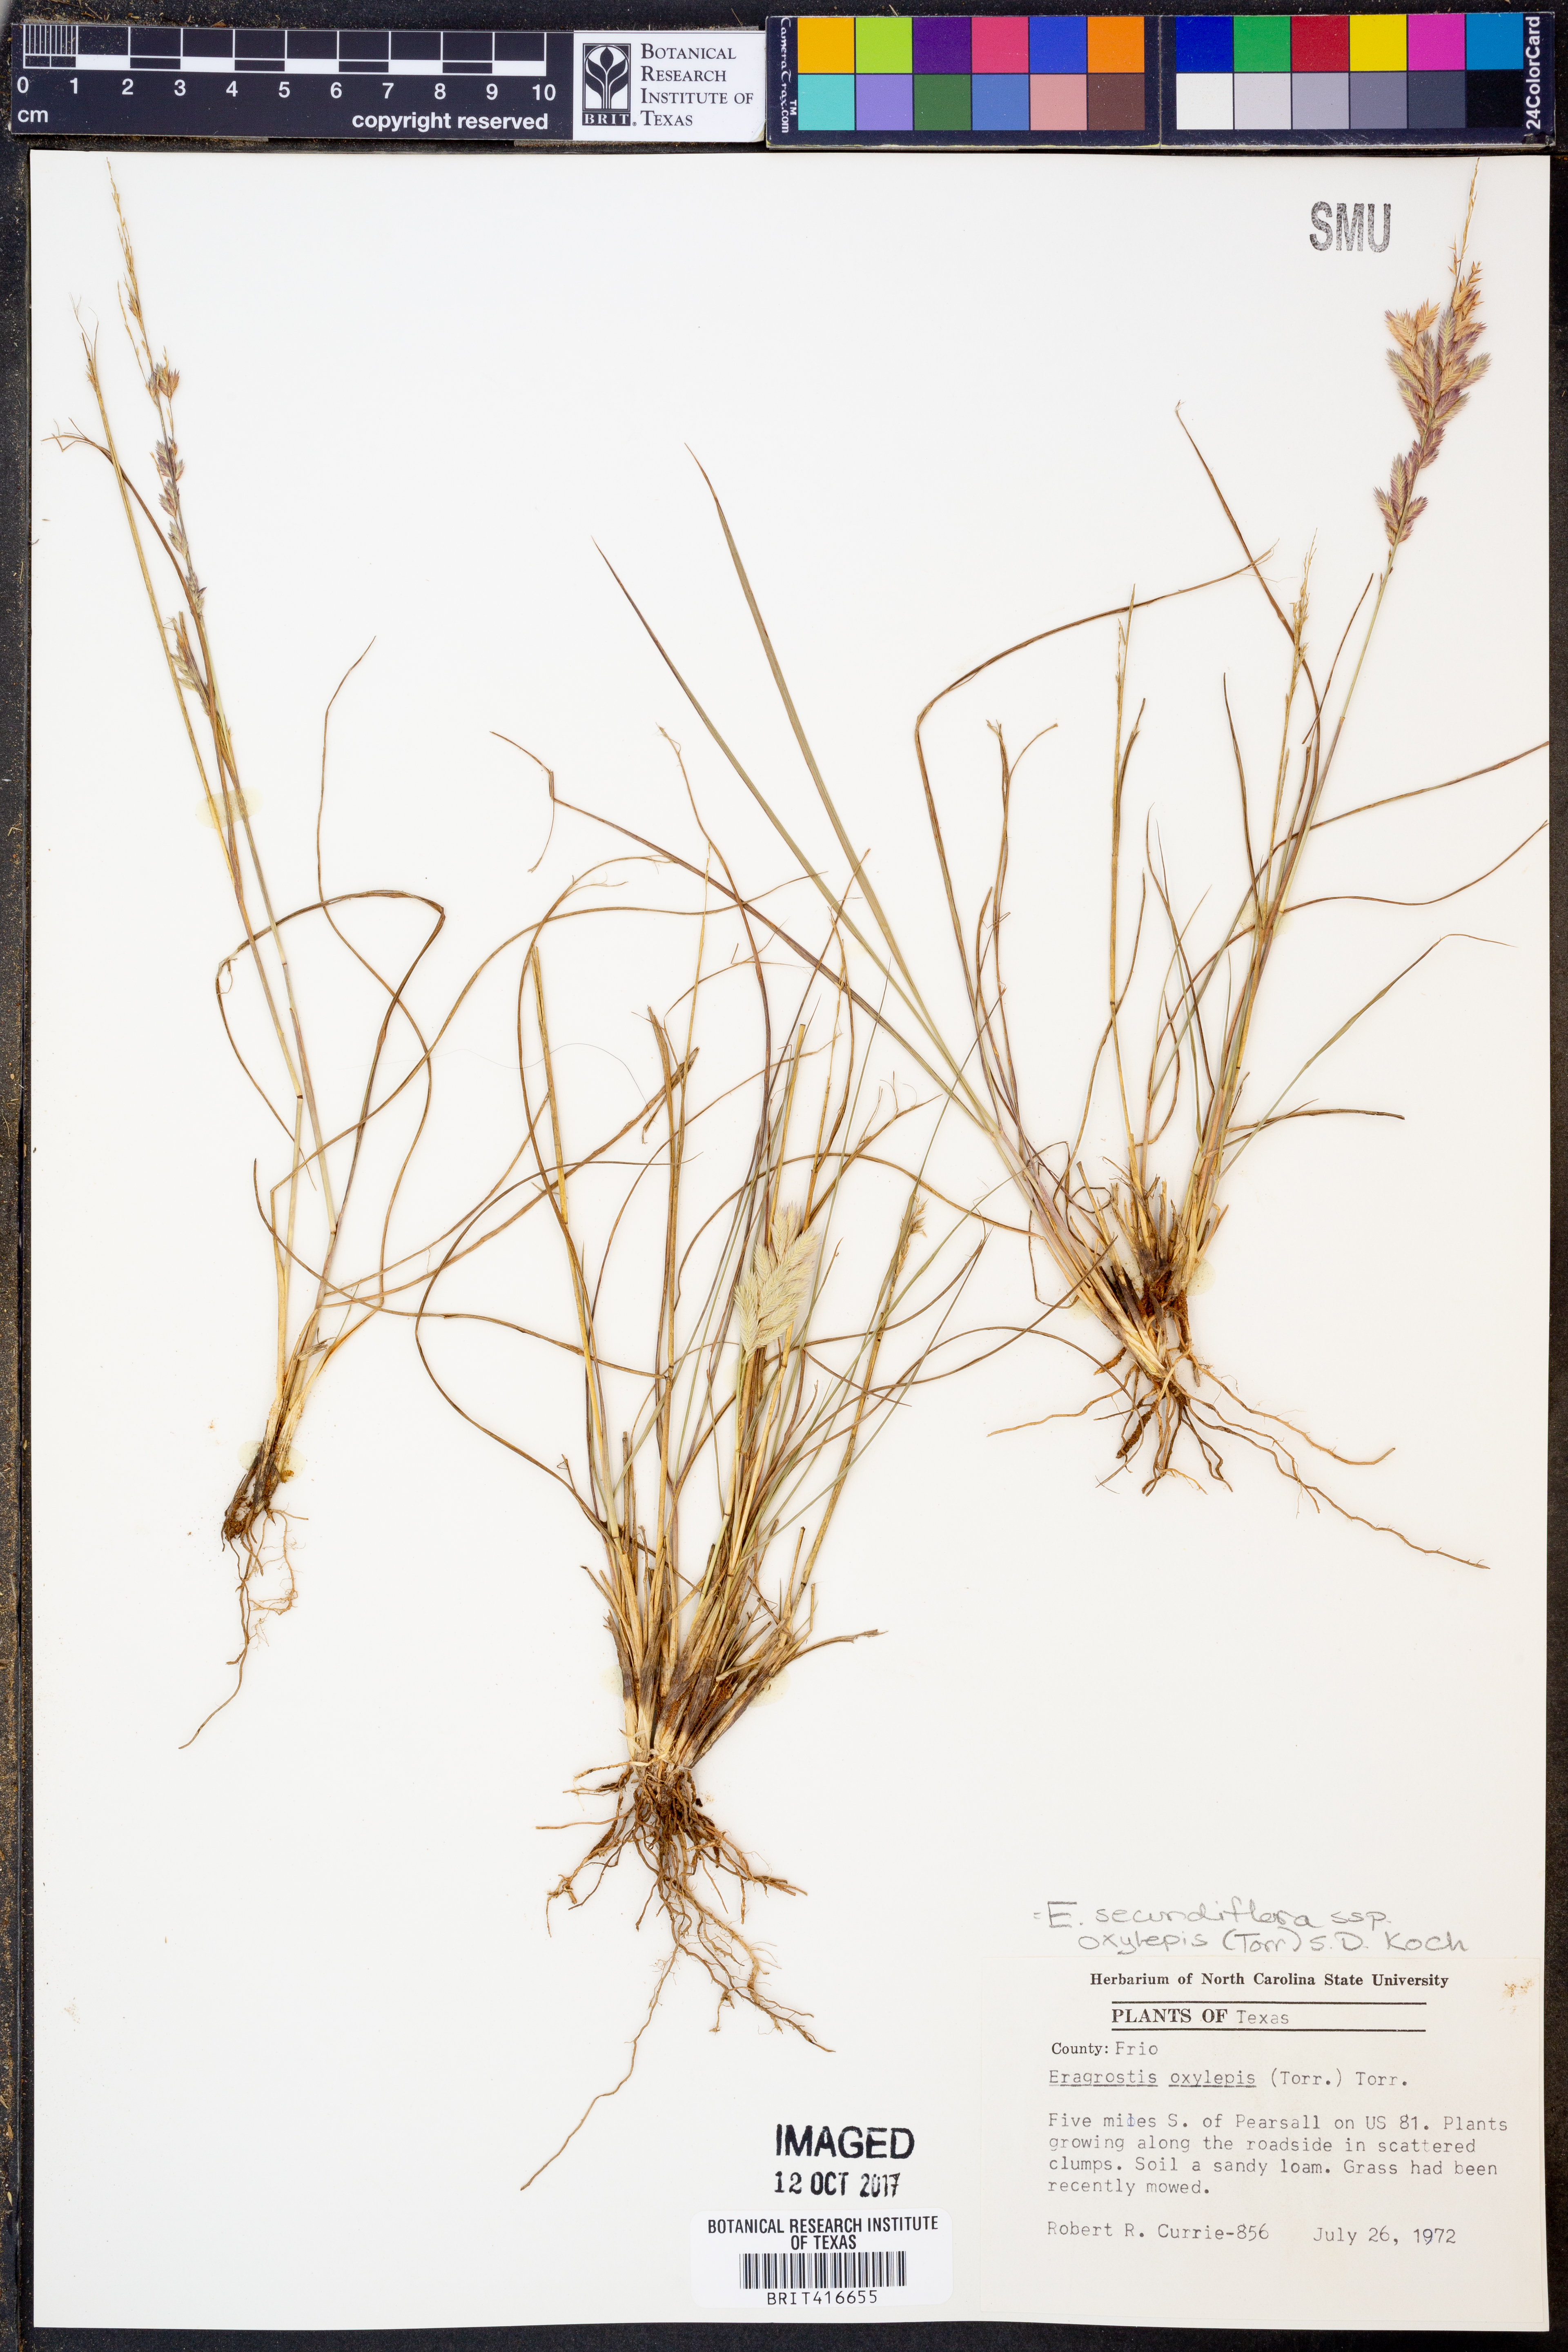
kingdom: Plantae
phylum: Tracheophyta
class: Liliopsida
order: Poales
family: Poaceae
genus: Eragrostis
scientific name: Eragrostis secundiflora
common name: Red love grass
